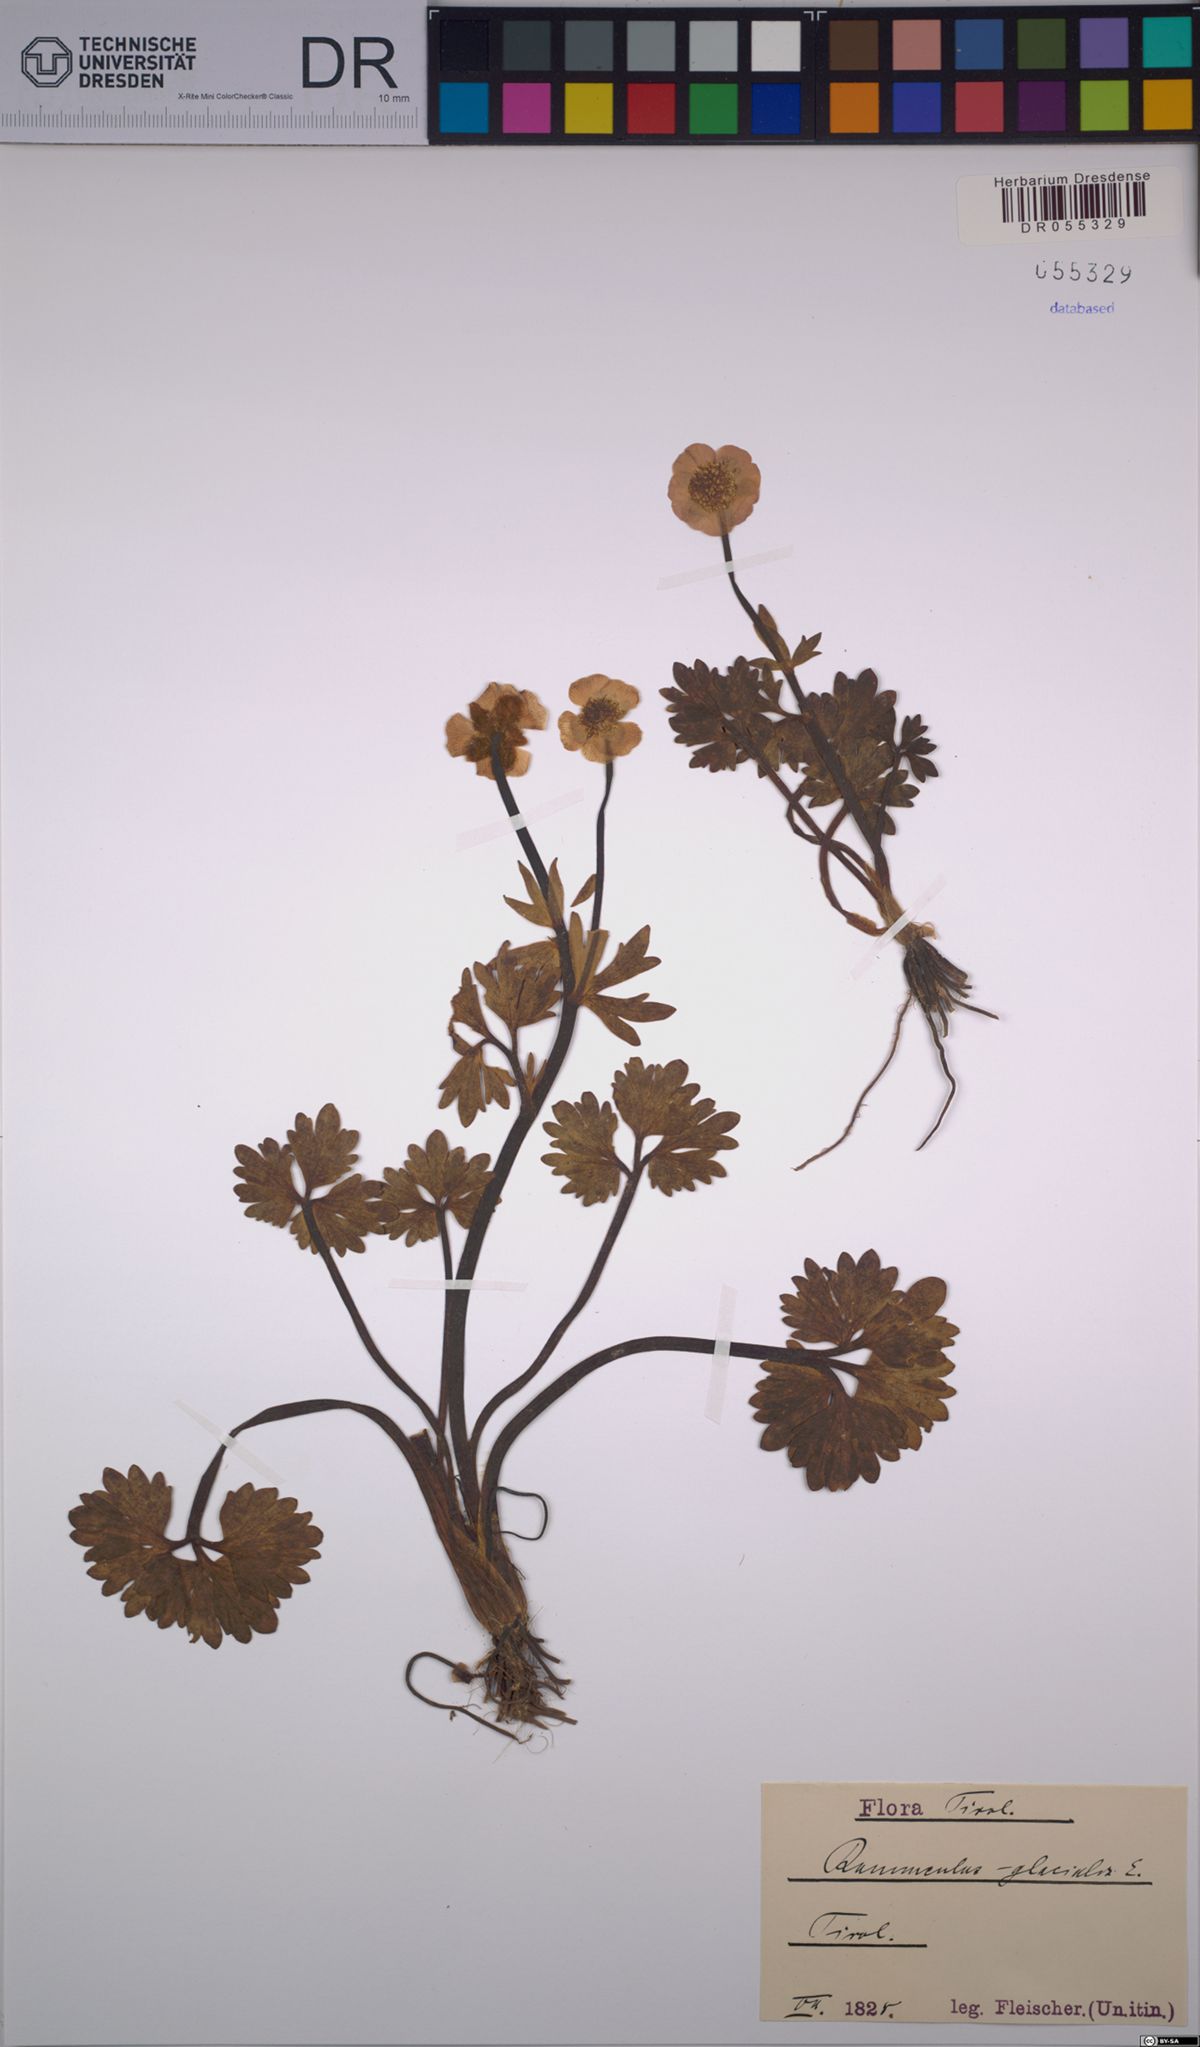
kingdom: Plantae
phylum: Tracheophyta
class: Magnoliopsida
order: Ranunculales
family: Ranunculaceae
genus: Ranunculus
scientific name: Ranunculus glacialis
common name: Glacier buttercup
